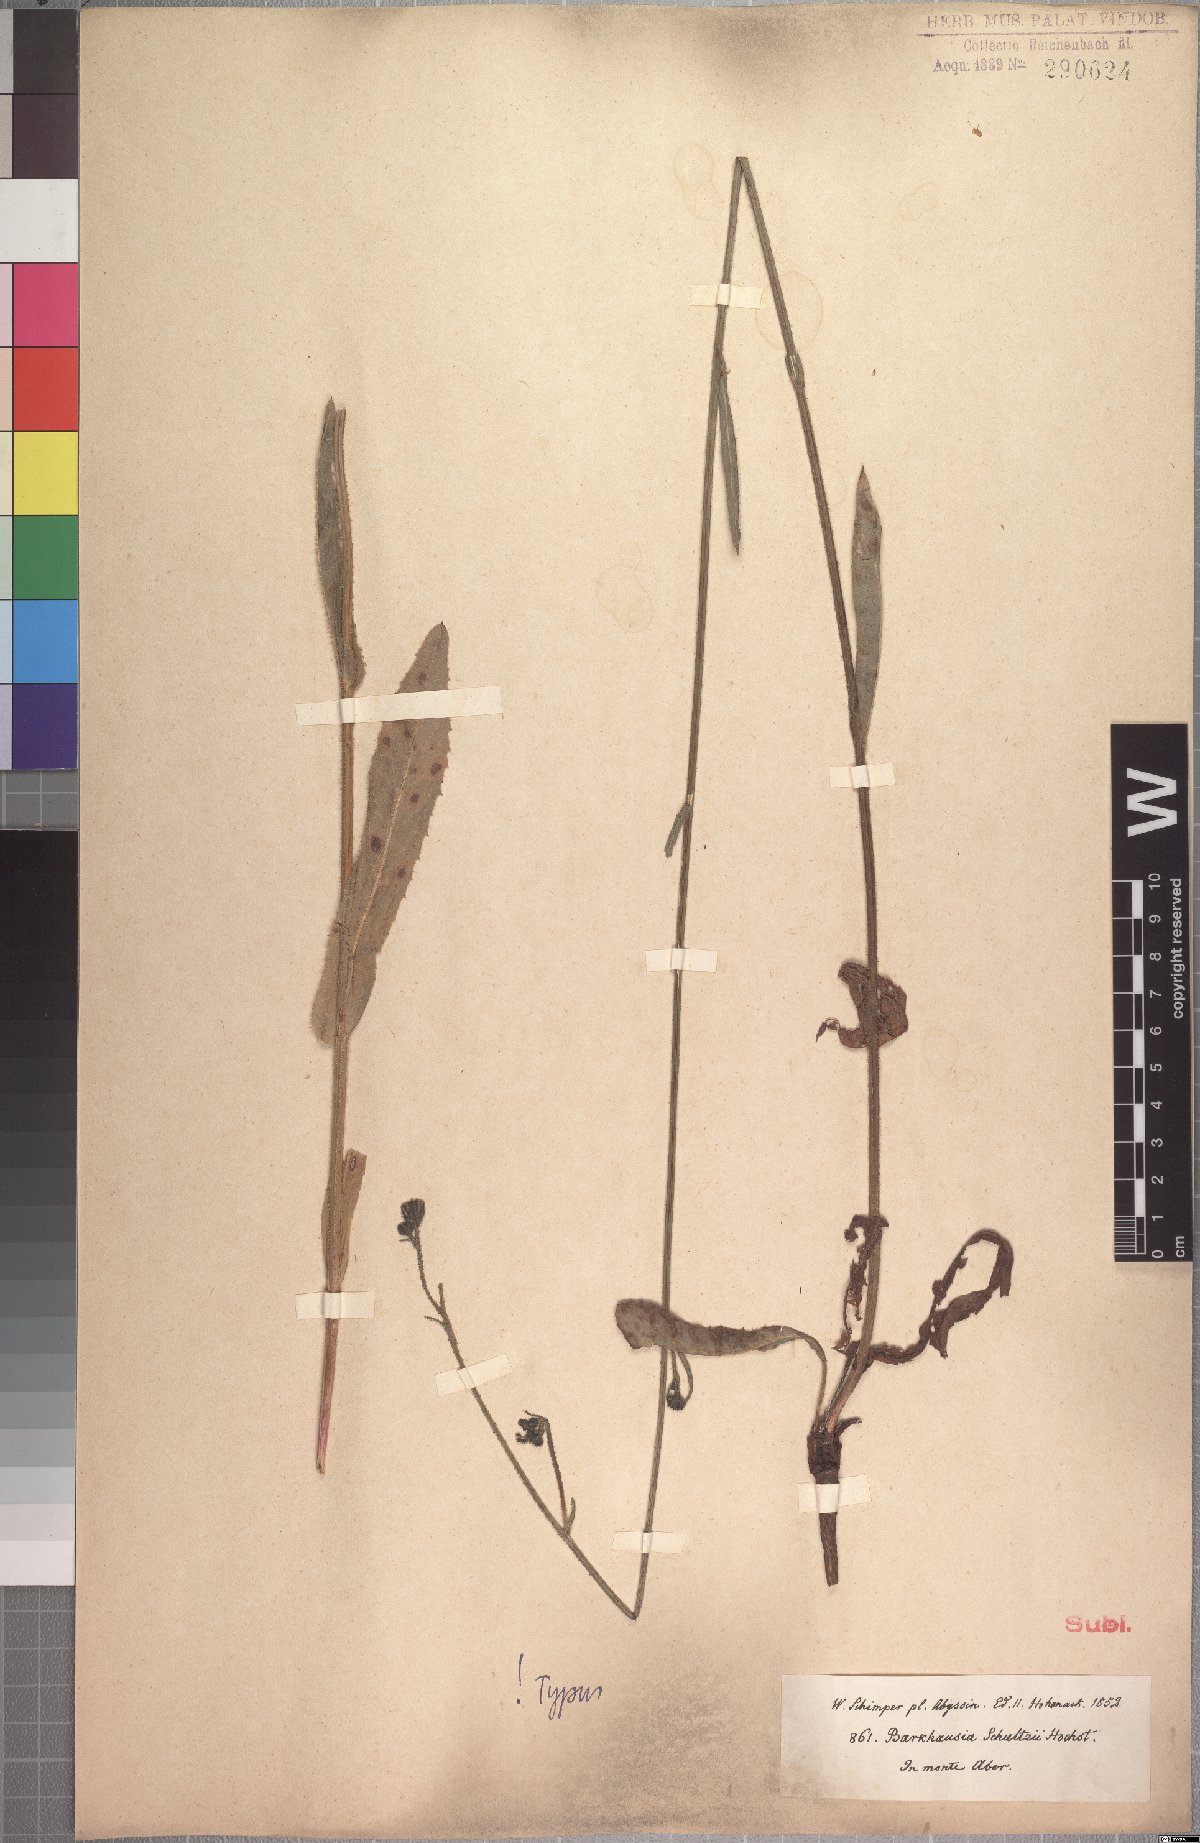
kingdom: Plantae
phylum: Tracheophyta
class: Magnoliopsida
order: Asterales
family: Asteraceae
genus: Crepis
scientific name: Crepis schultzii
